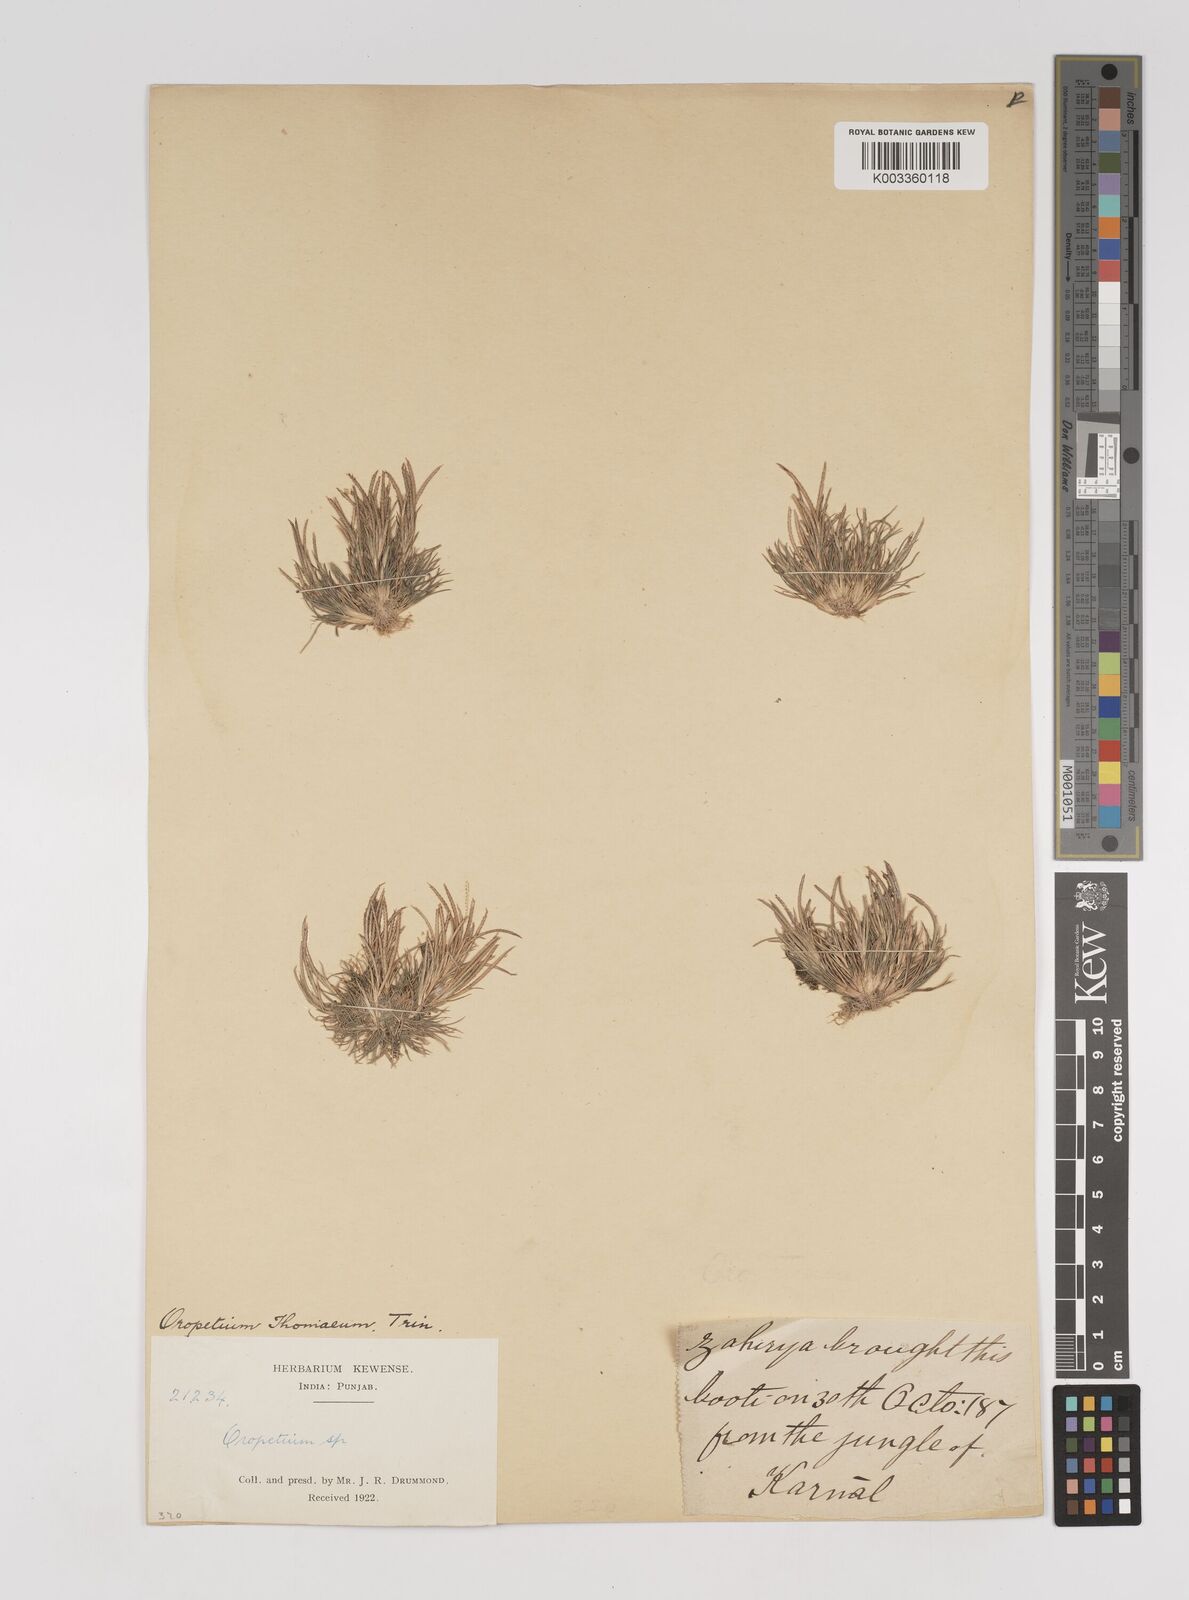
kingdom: Plantae
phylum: Tracheophyta
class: Liliopsida
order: Poales
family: Poaceae
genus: Oropetium
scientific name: Oropetium thomaeum
